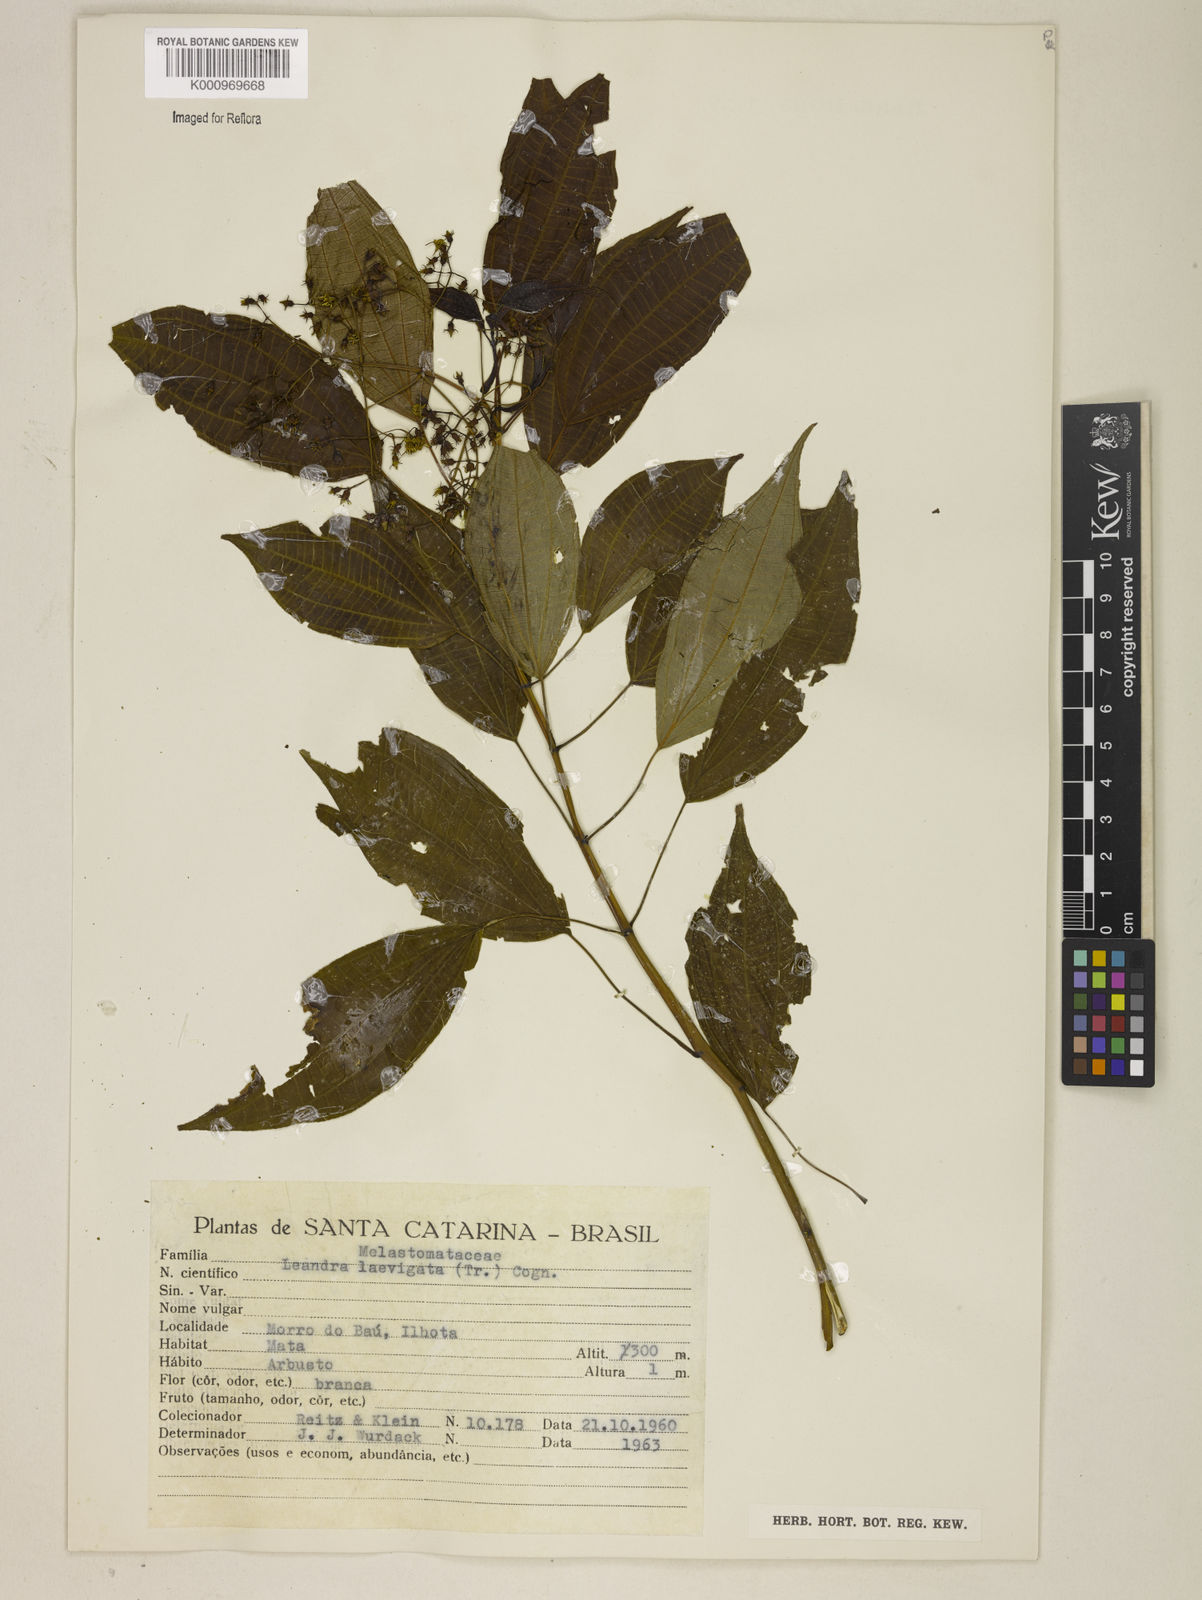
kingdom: Plantae
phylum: Tracheophyta
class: Magnoliopsida
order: Myrtales
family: Melastomataceae
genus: Miconia
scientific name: Miconia ciliolata
